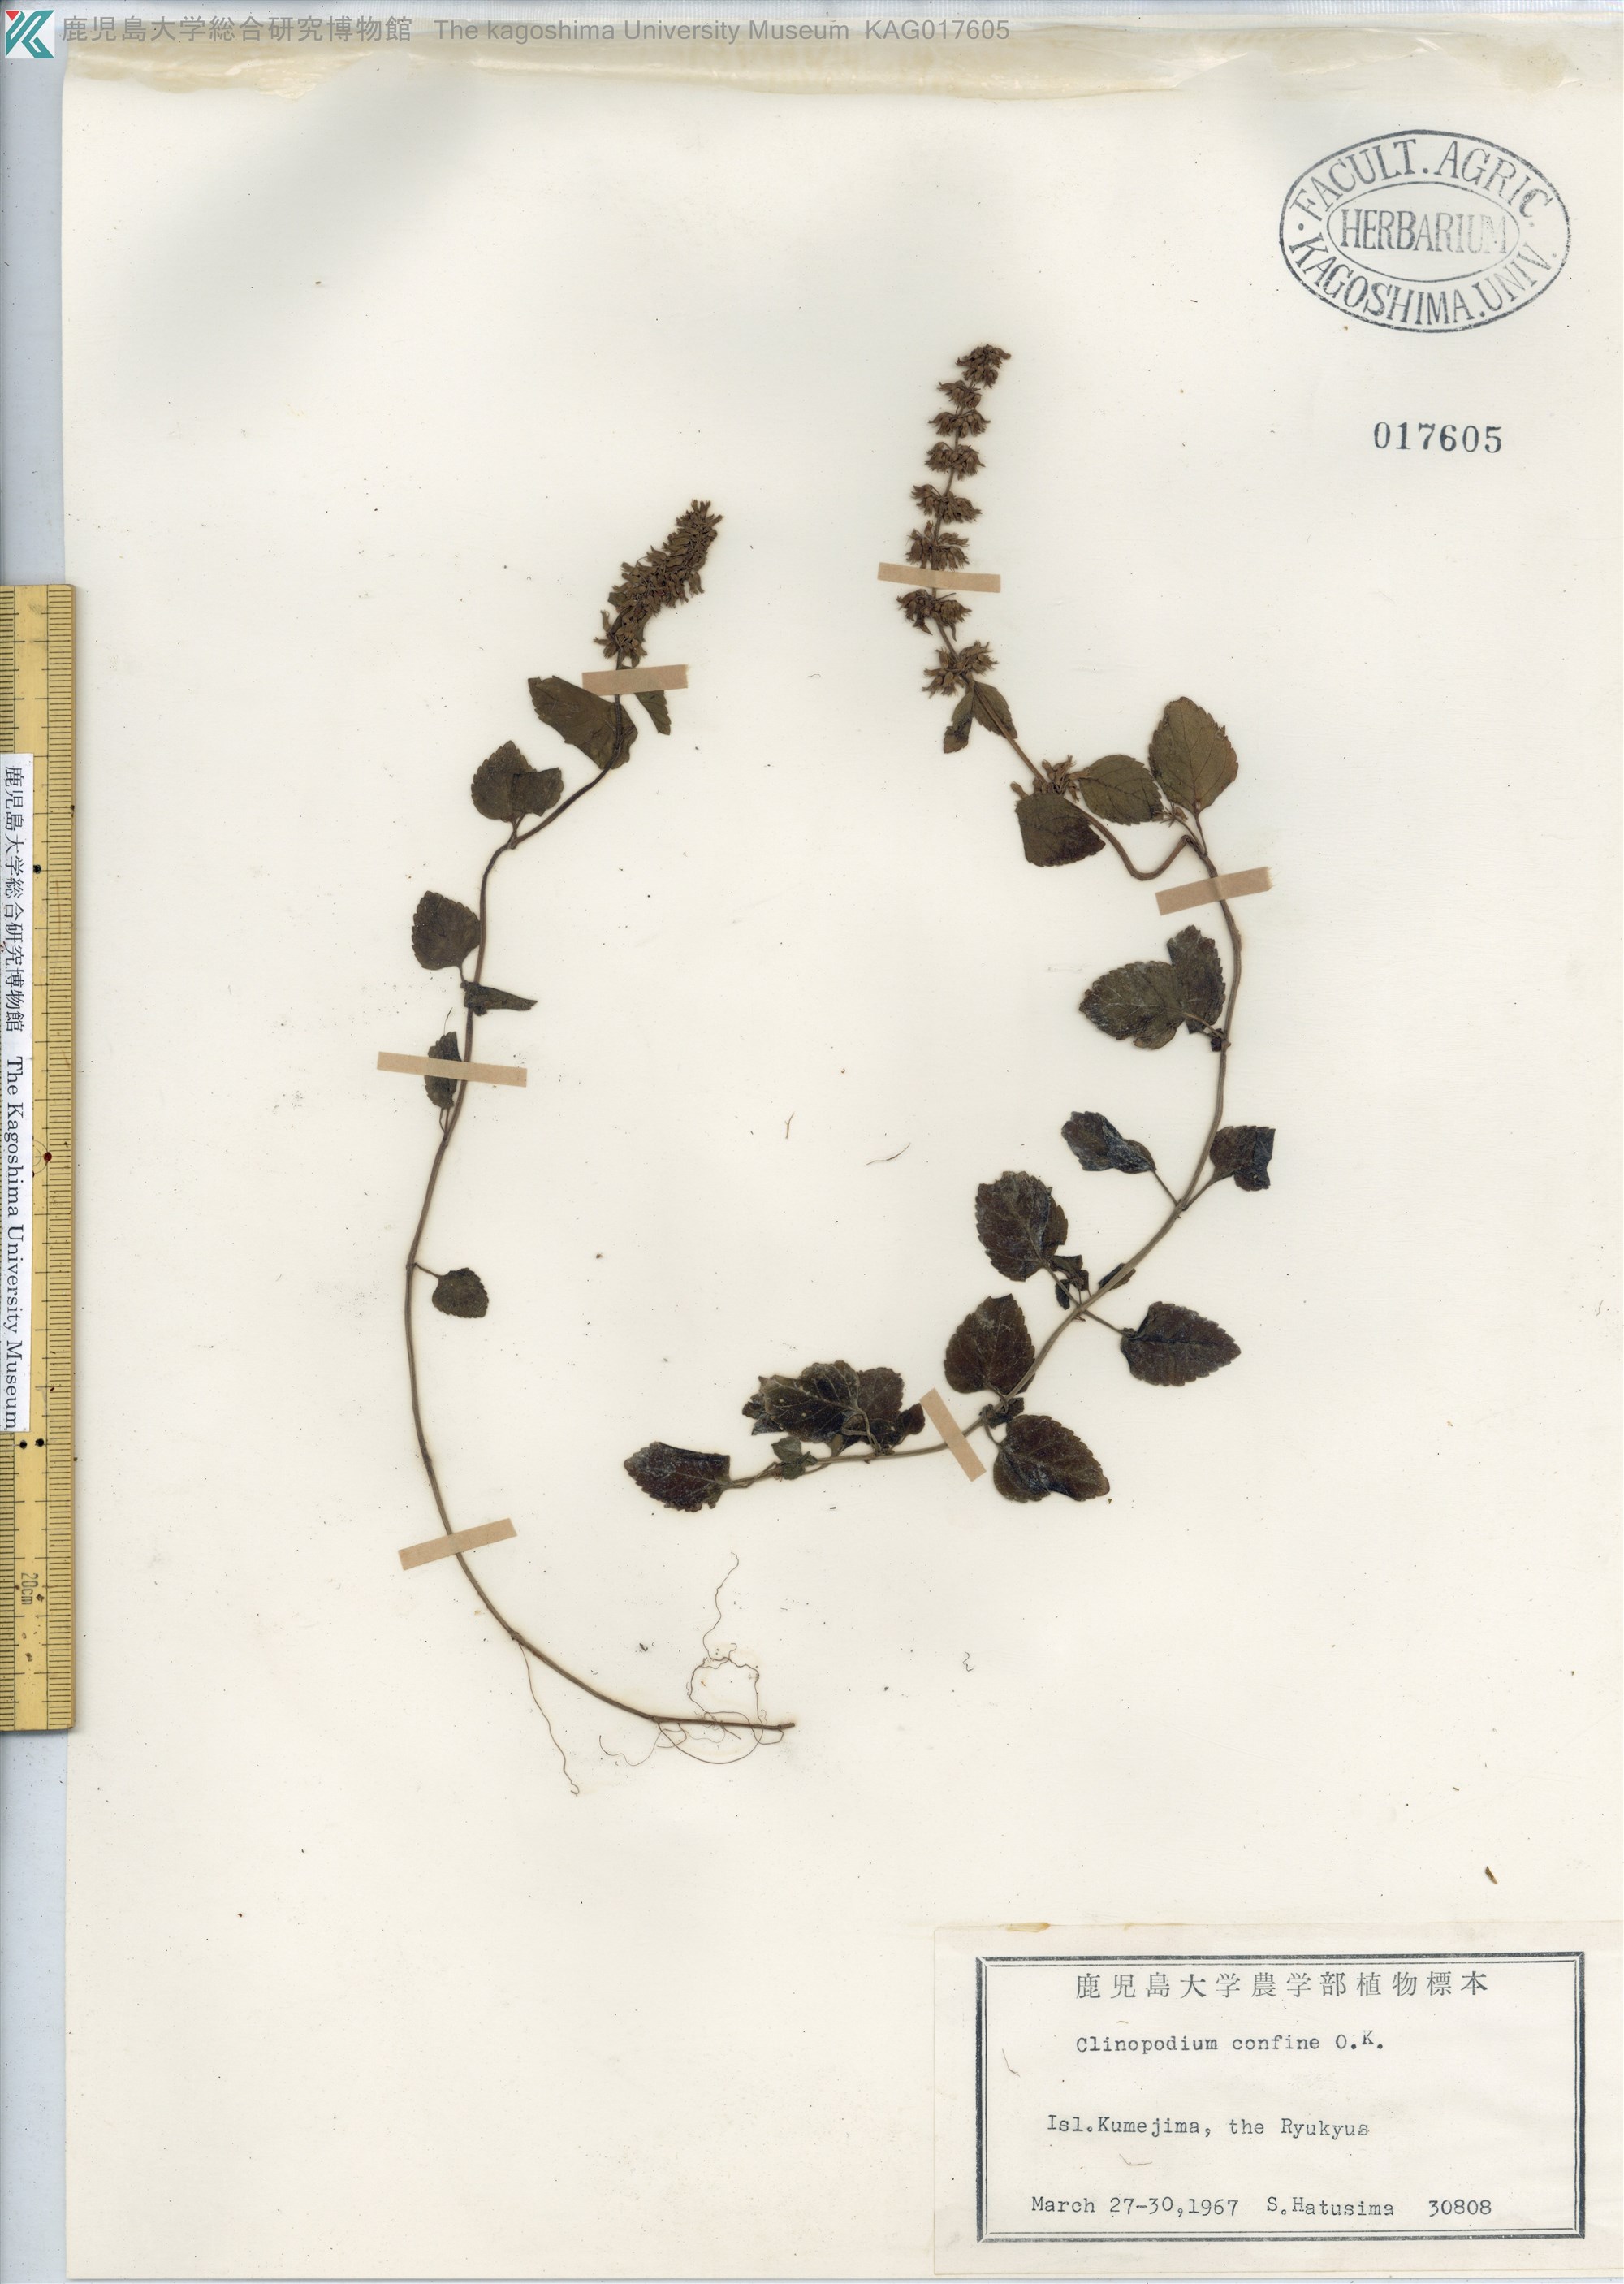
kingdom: Plantae
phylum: Tracheophyta
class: Magnoliopsida
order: Lamiales
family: Lamiaceae
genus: Clinopodium
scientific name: Clinopodium gracile
